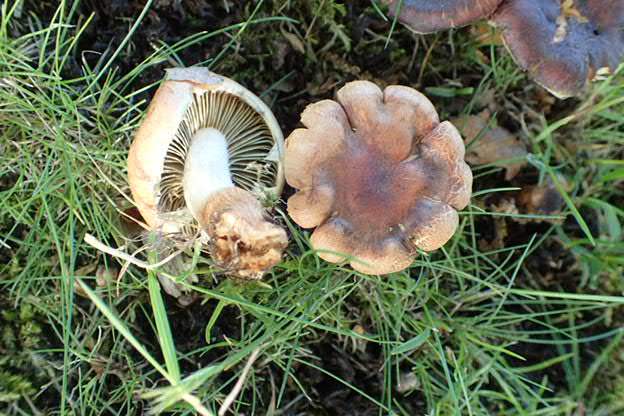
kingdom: Fungi
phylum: Basidiomycota
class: Agaricomycetes
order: Agaricales
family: Strophariaceae
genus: Hypholoma
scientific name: Hypholoma
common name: svovlhat
